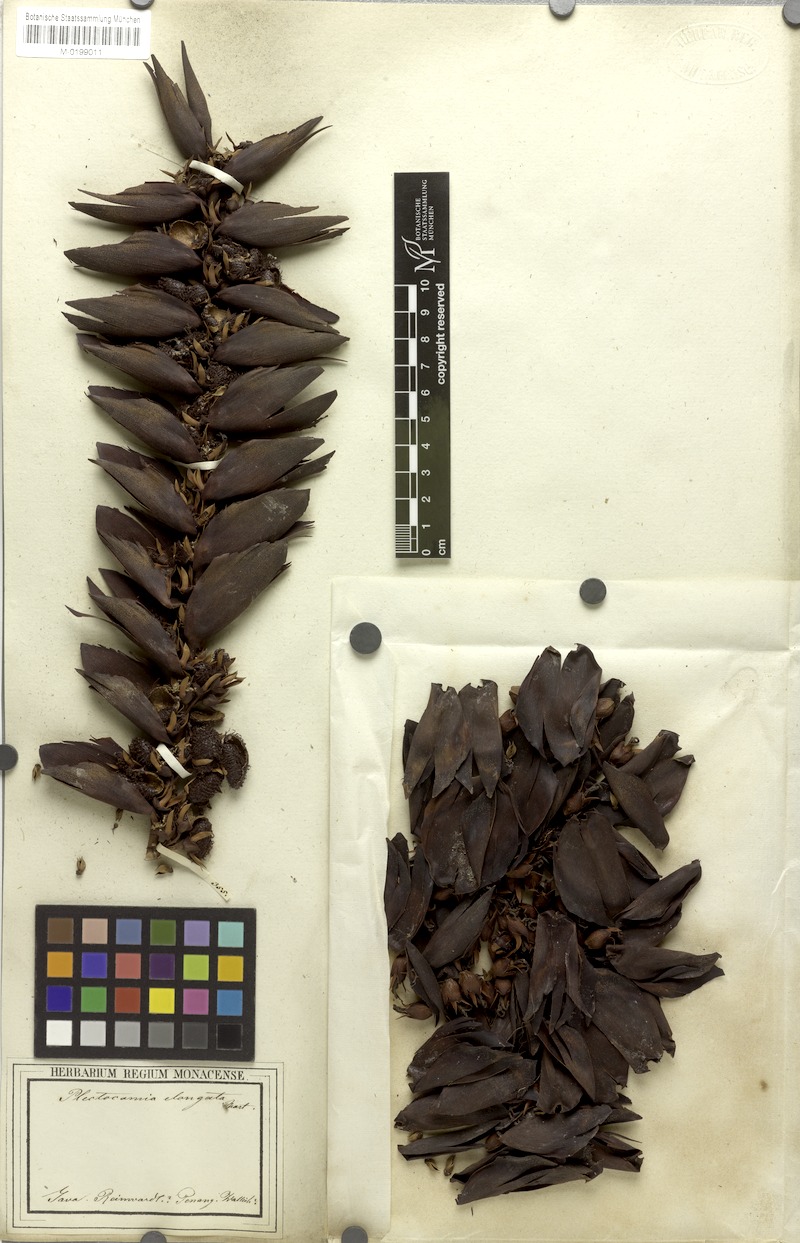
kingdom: Plantae
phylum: Tracheophyta
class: Liliopsida
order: Arecales
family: Arecaceae
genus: Plectocomia
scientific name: Plectocomia elongata
